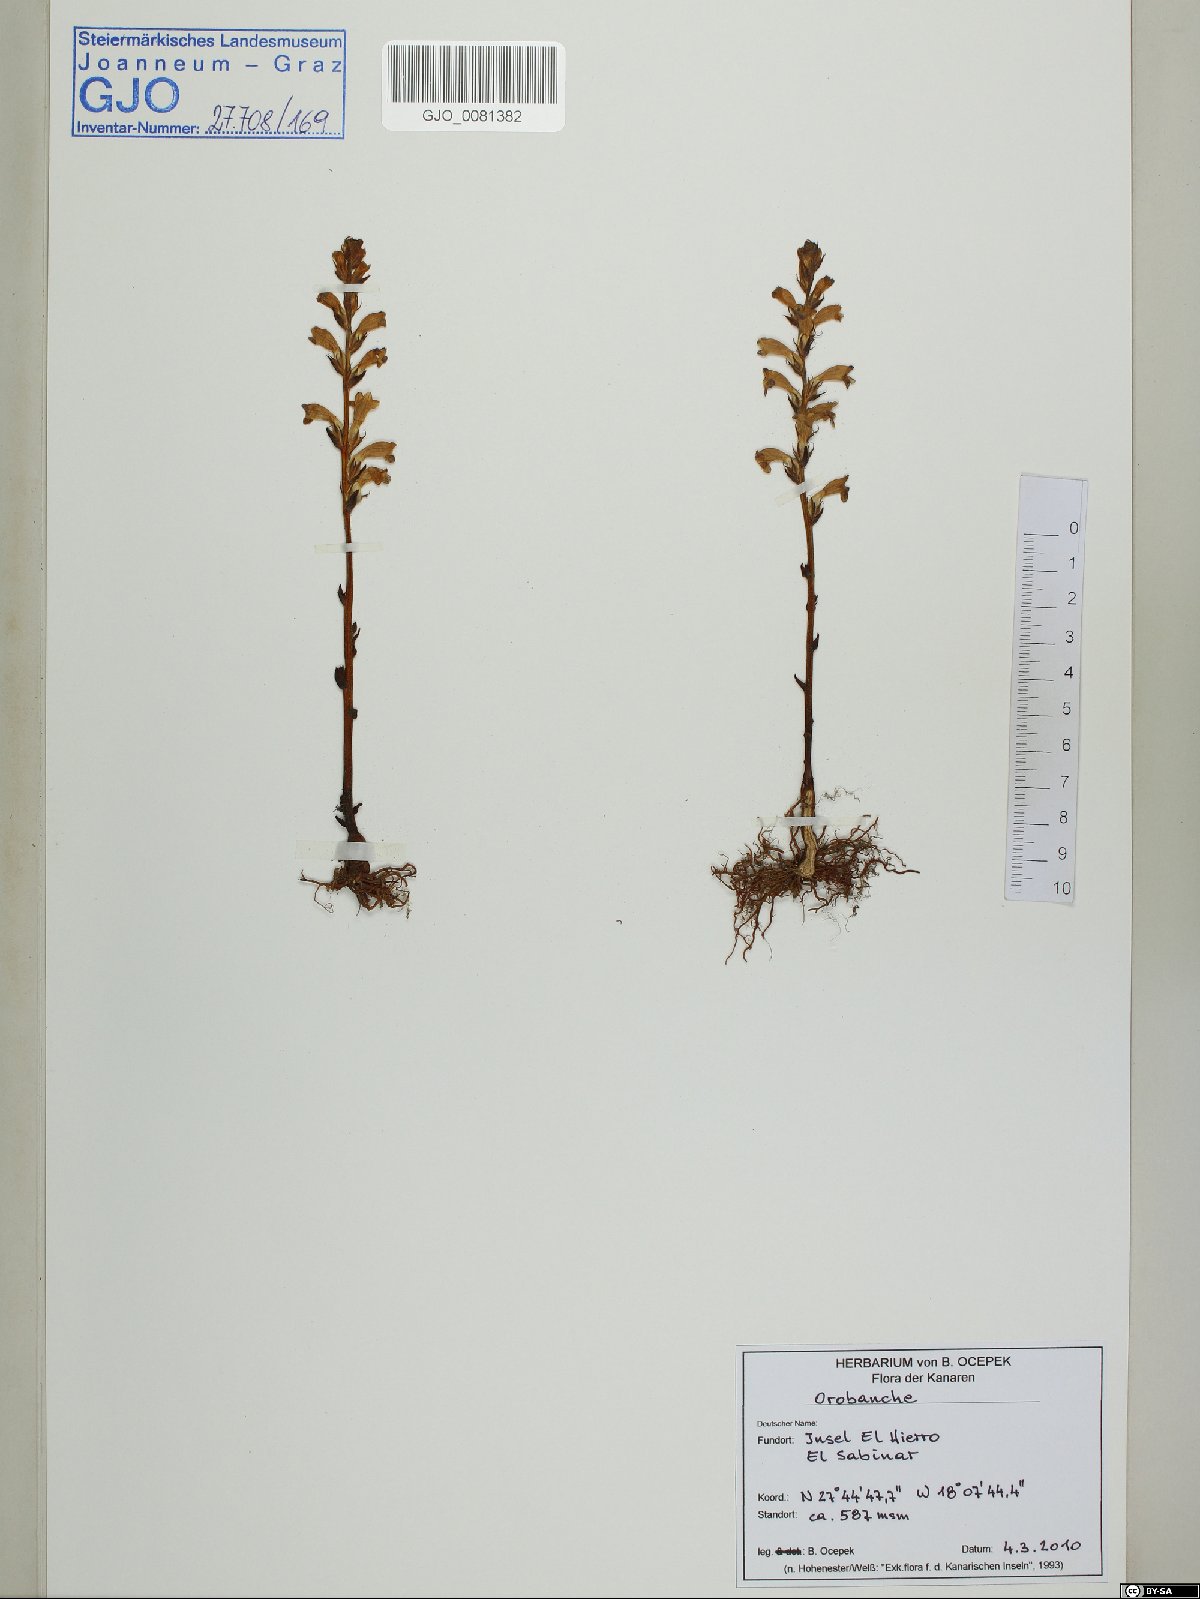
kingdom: Plantae
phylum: Tracheophyta
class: Magnoliopsida
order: Lamiales
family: Orobanchaceae
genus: Orobanche
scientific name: Orobanche
